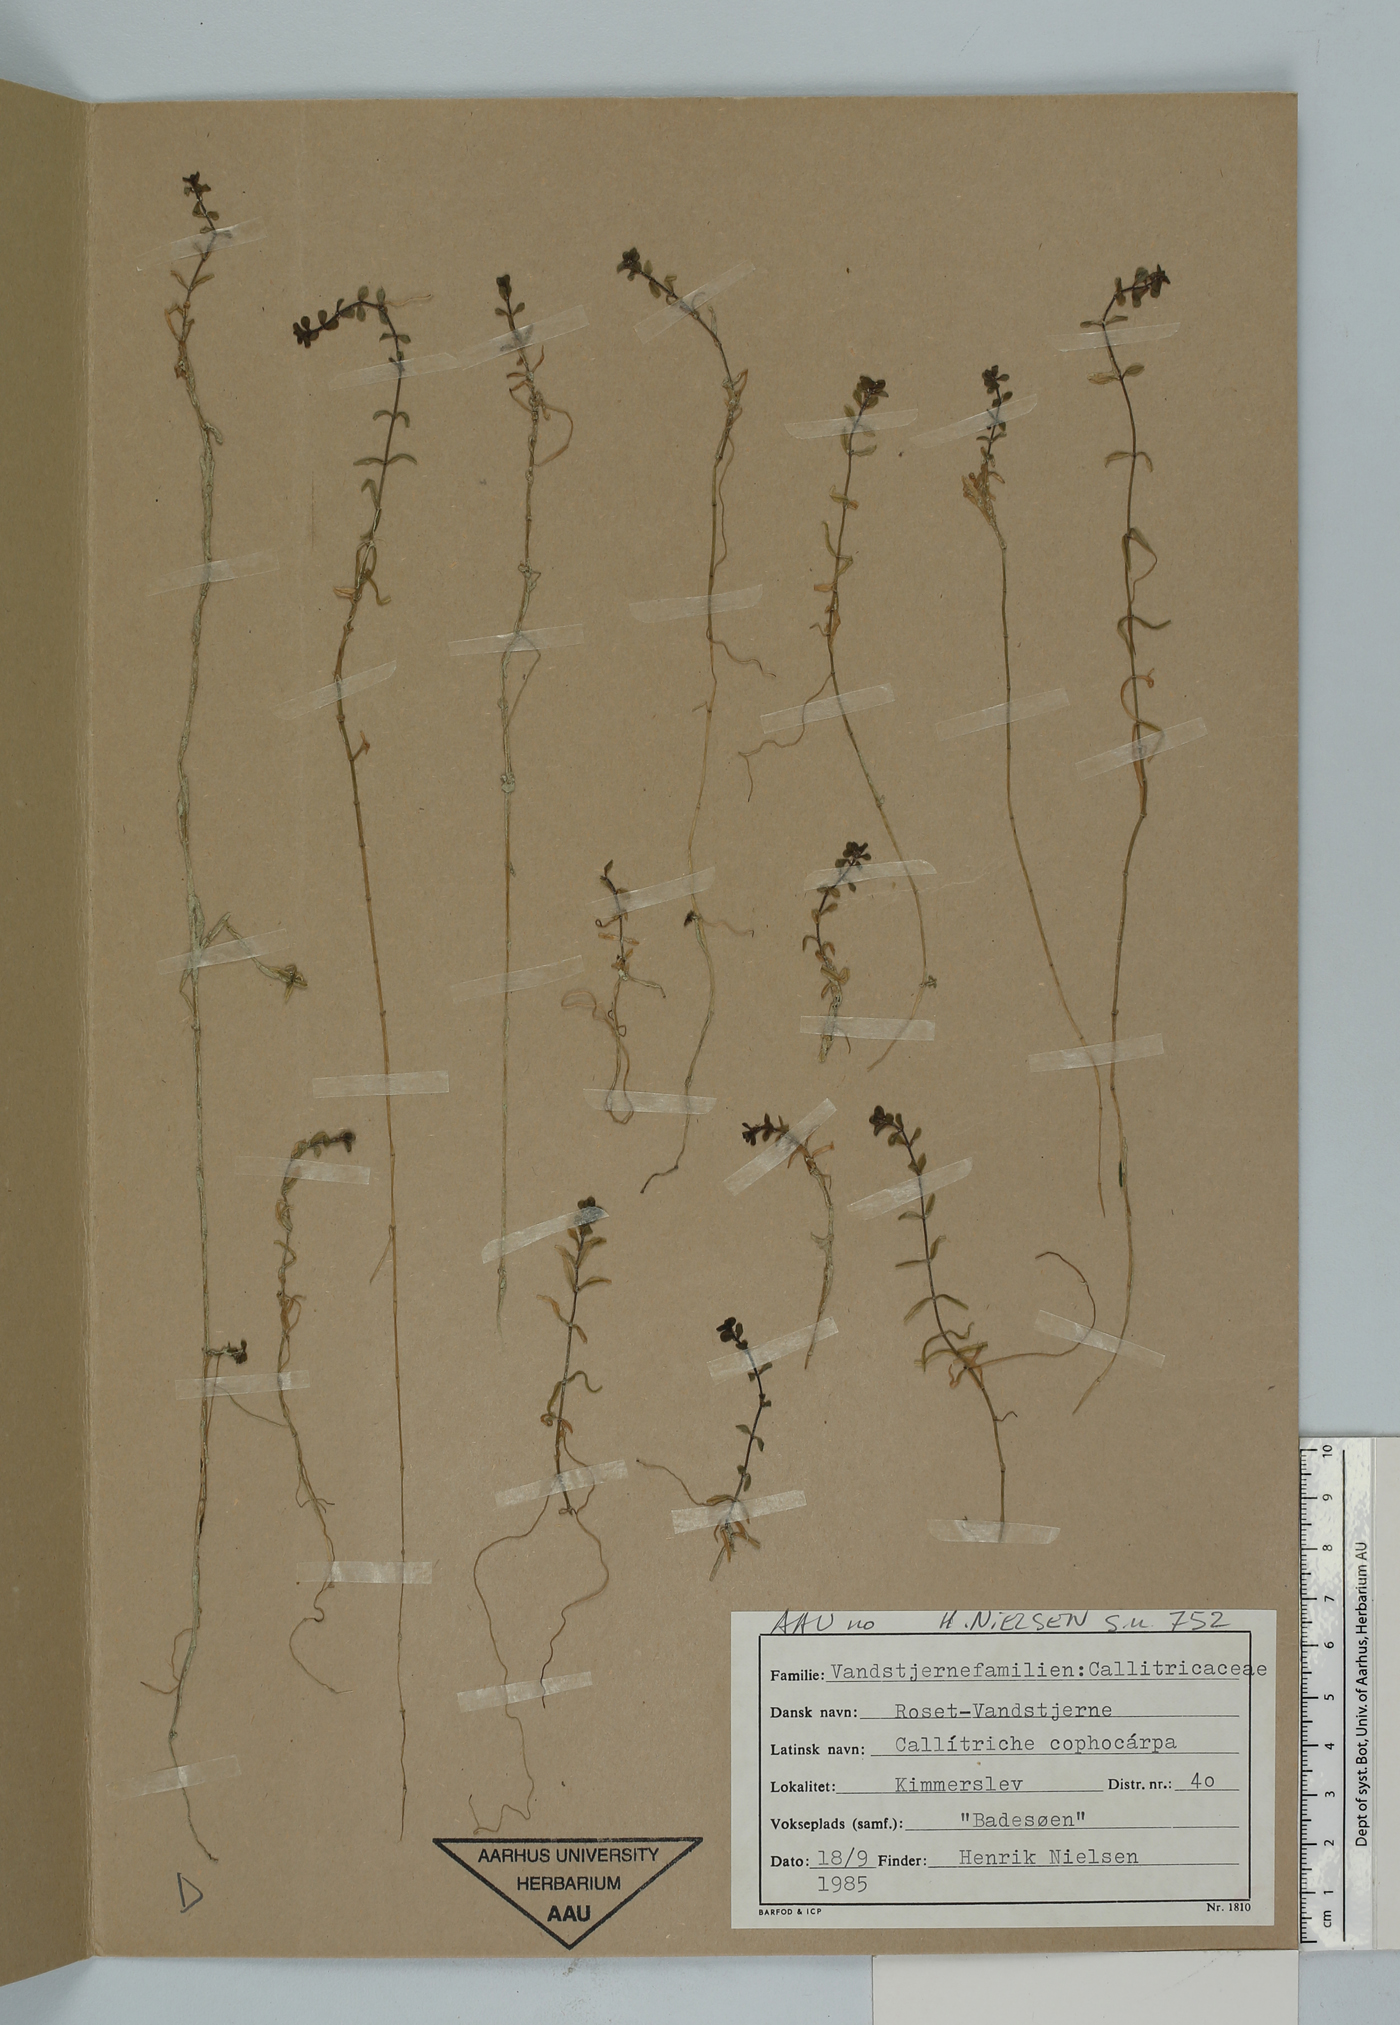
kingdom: Plantae
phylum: Tracheophyta
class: Magnoliopsida
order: Lamiales
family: Plantaginaceae
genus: Callitriche
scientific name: Callitriche cophocarpa
